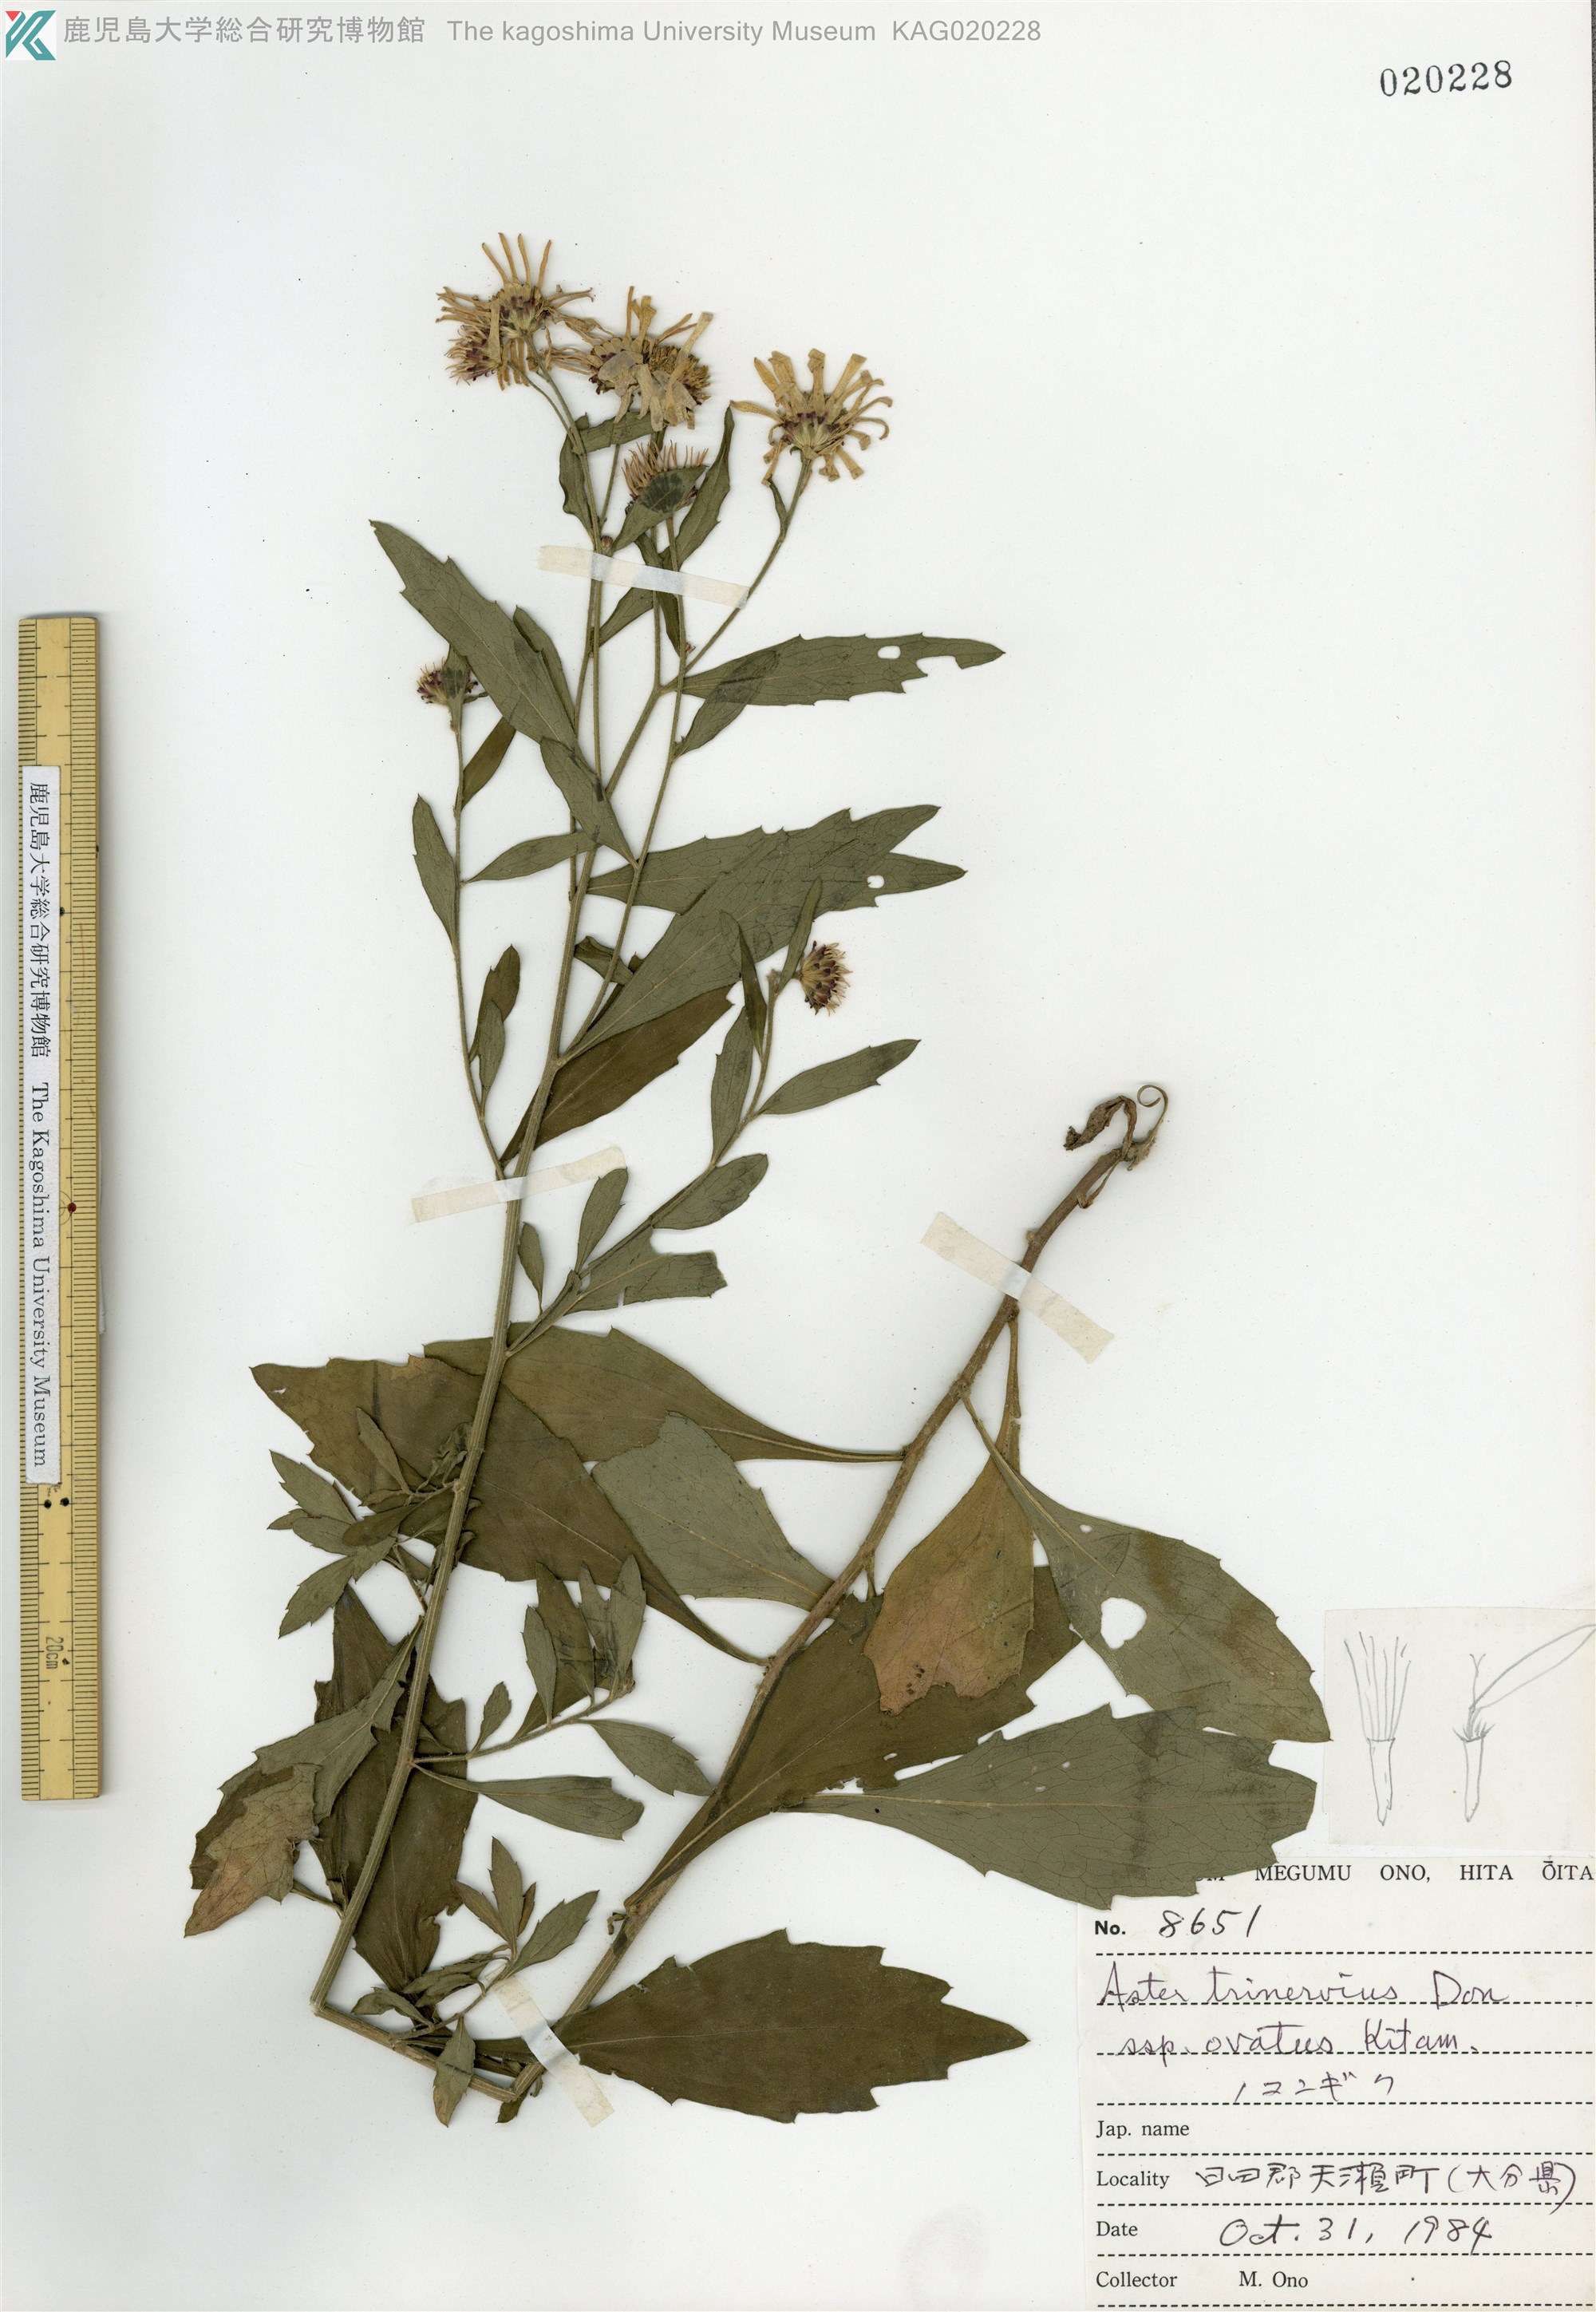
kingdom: Plantae
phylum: Tracheophyta
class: Magnoliopsida
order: Asterales
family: Asteraceae
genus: Aster
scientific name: Aster microcephalus
